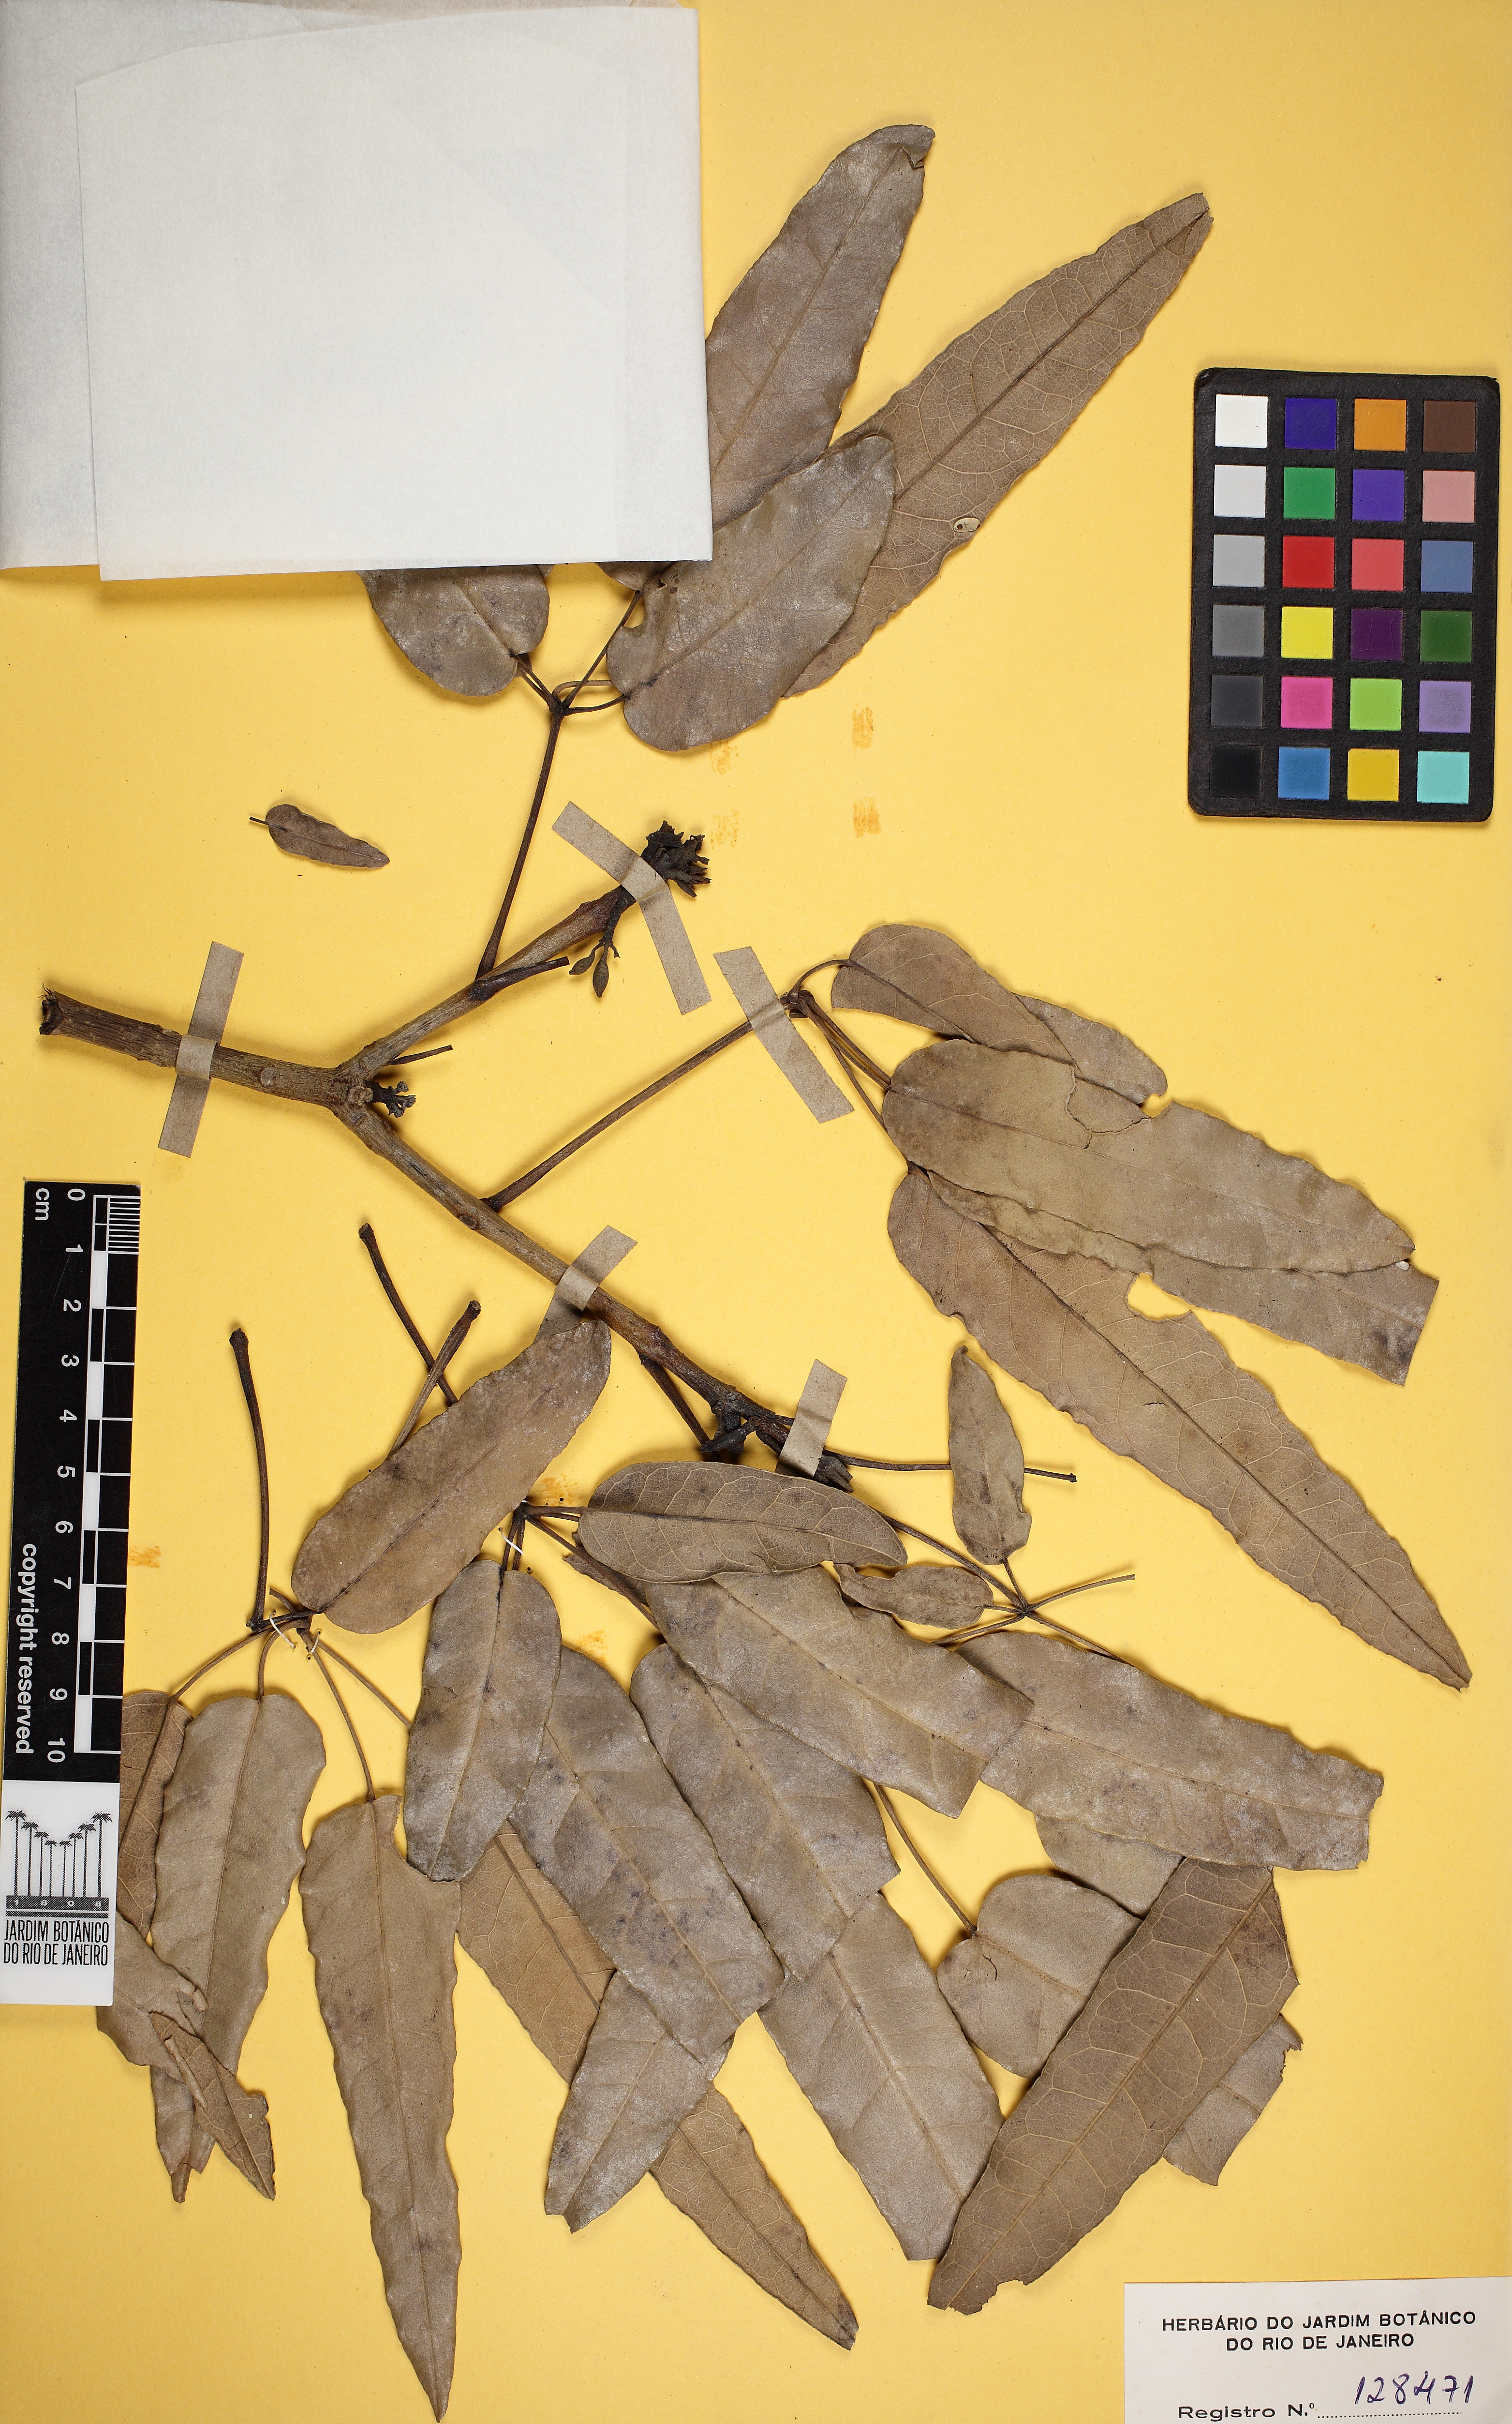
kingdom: Plantae
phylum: Tracheophyta
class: Magnoliopsida
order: Lamiales
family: Bignoniaceae
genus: Tabebuia
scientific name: Tabebuia aurea
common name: Caribbean trumpet-tree
